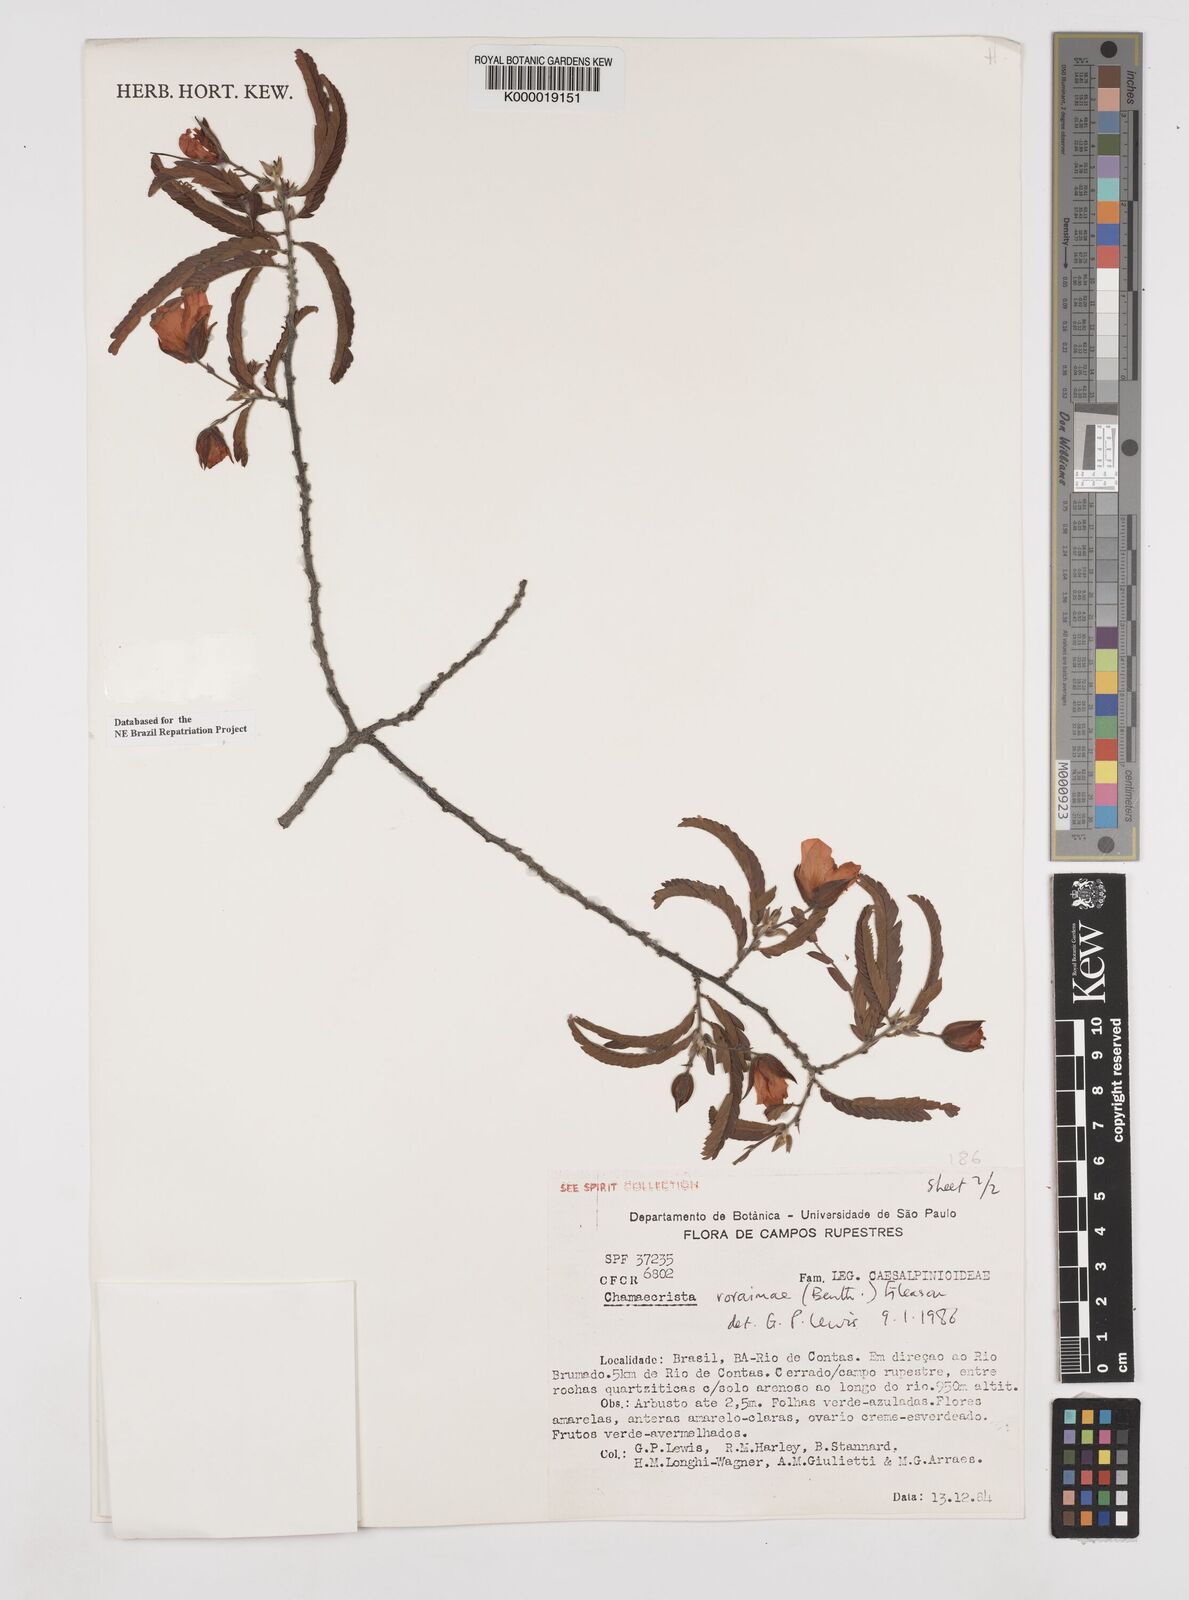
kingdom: Plantae
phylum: Tracheophyta
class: Magnoliopsida
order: Fabales
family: Fabaceae
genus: Chamaecrista
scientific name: Chamaecrista roraimae
